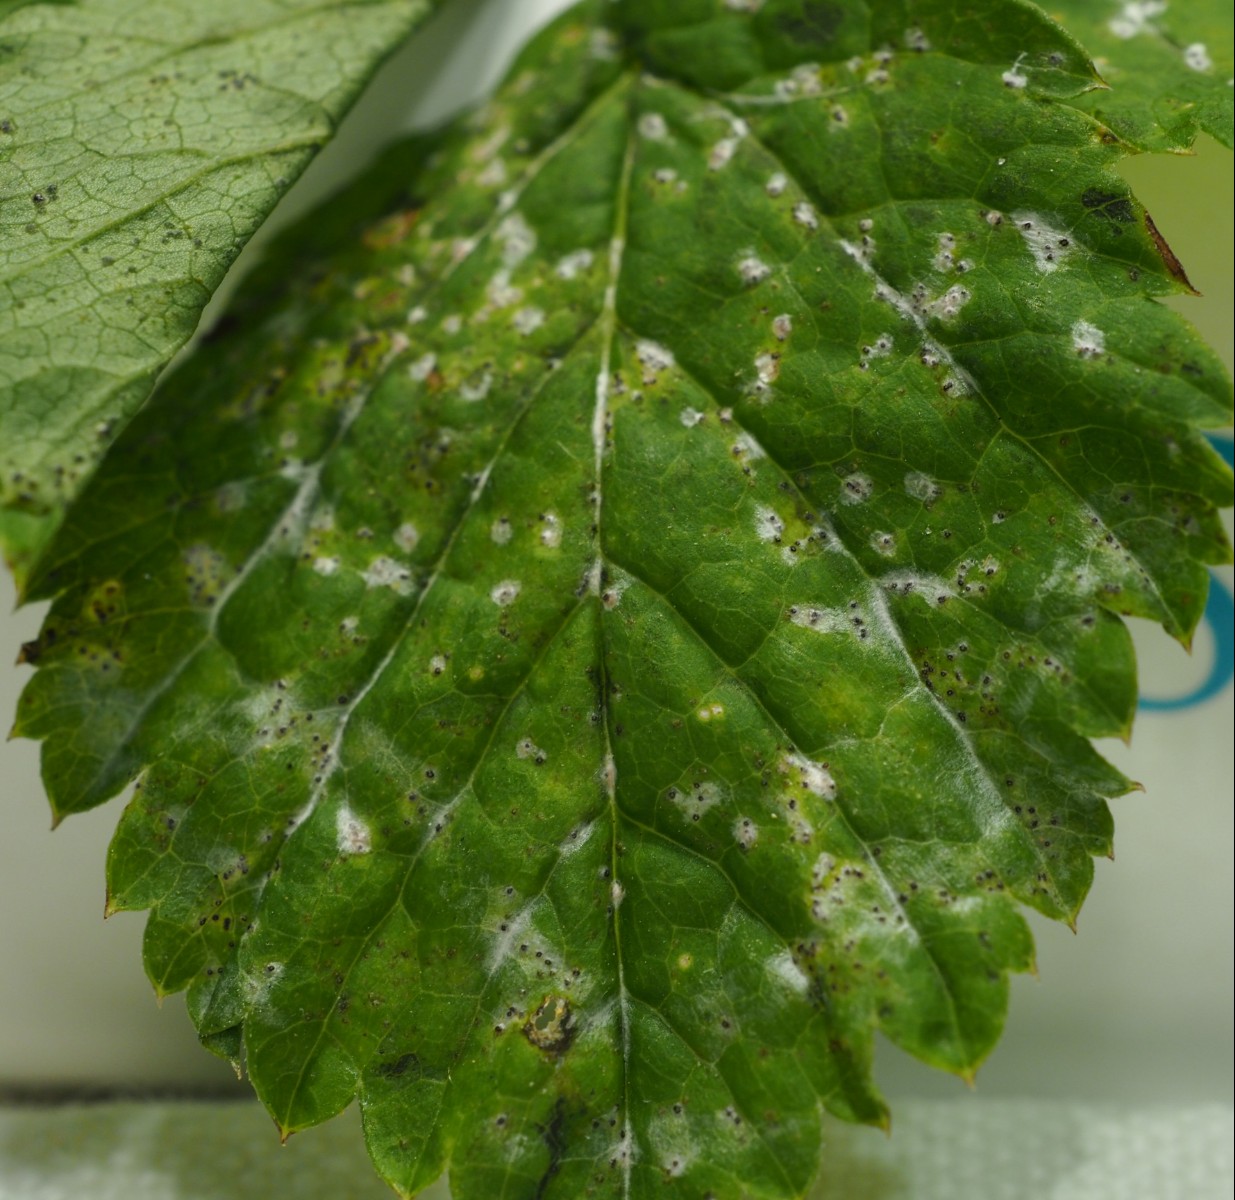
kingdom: Fungi
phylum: Ascomycota
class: Dothideomycetes
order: Mycosphaerellales
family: Mycosphaerellaceae
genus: Mycosphaerella
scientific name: Mycosphaerella podagrariae
